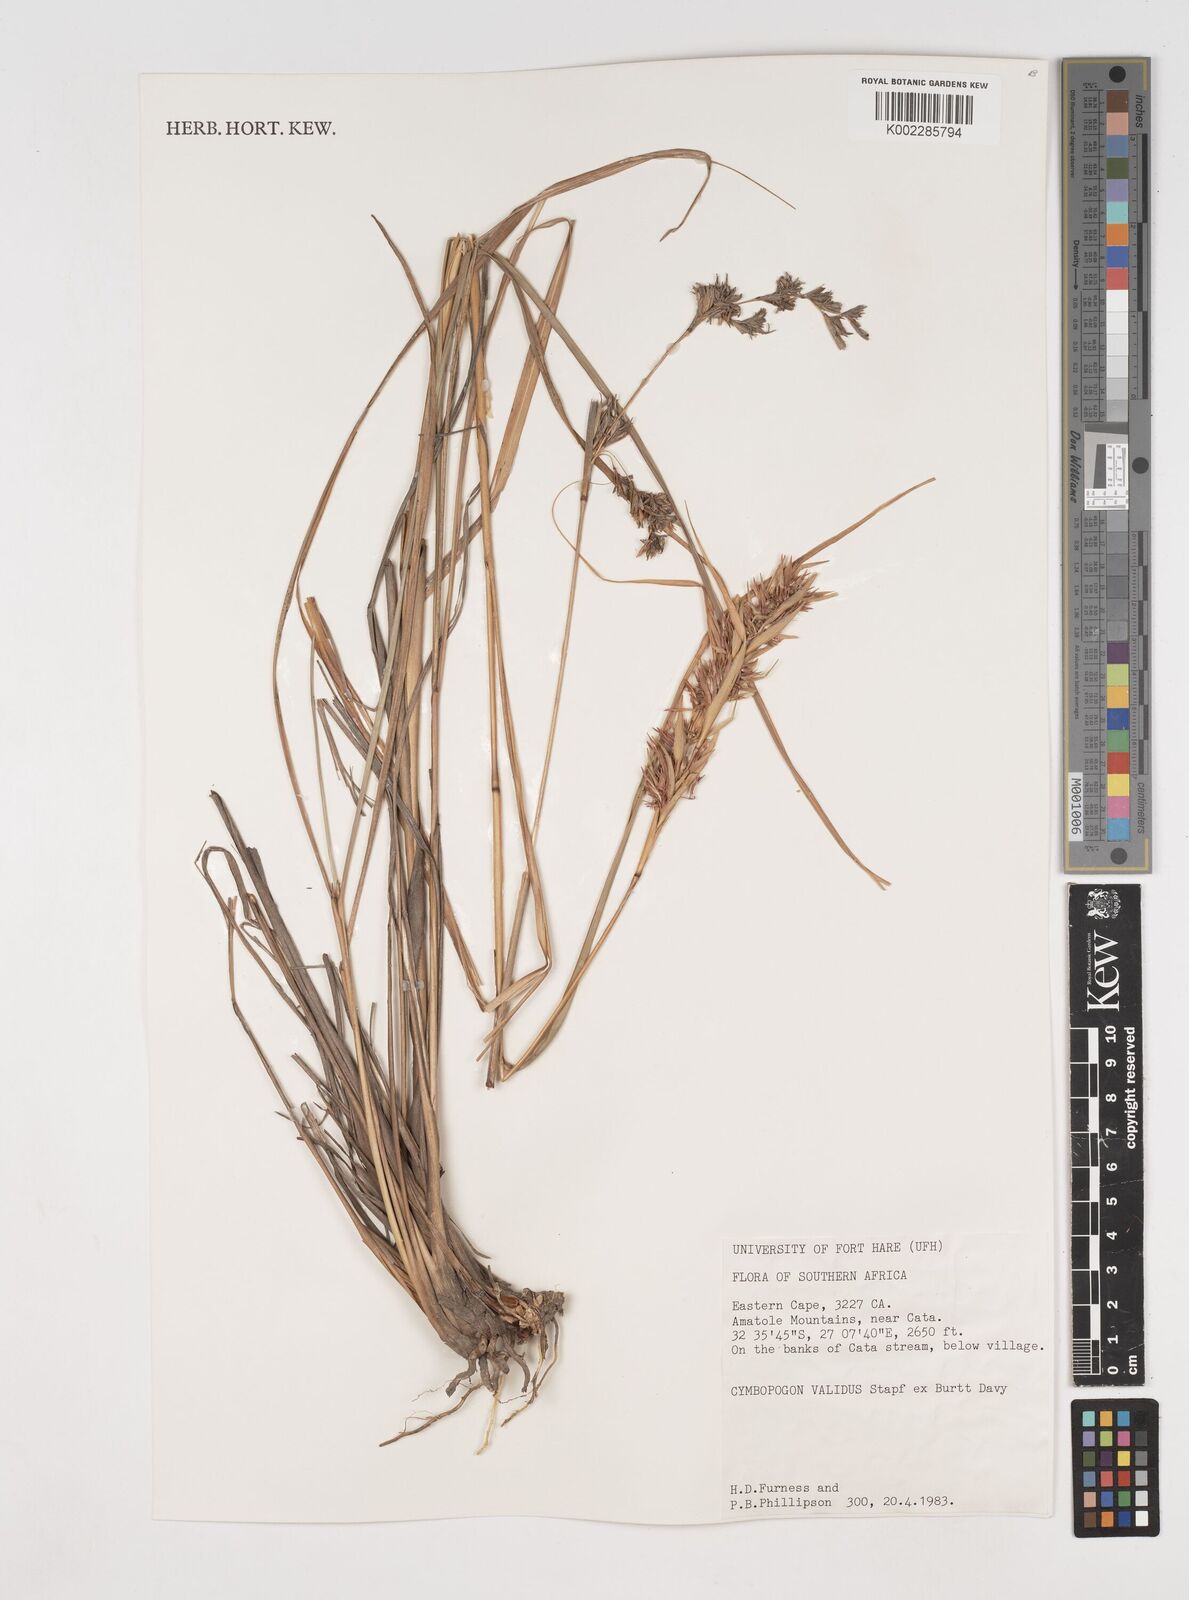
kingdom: Plantae
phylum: Tracheophyta
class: Liliopsida
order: Poales
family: Poaceae
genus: Cymbopogon
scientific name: Cymbopogon nardus
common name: Giant turpentine grass
